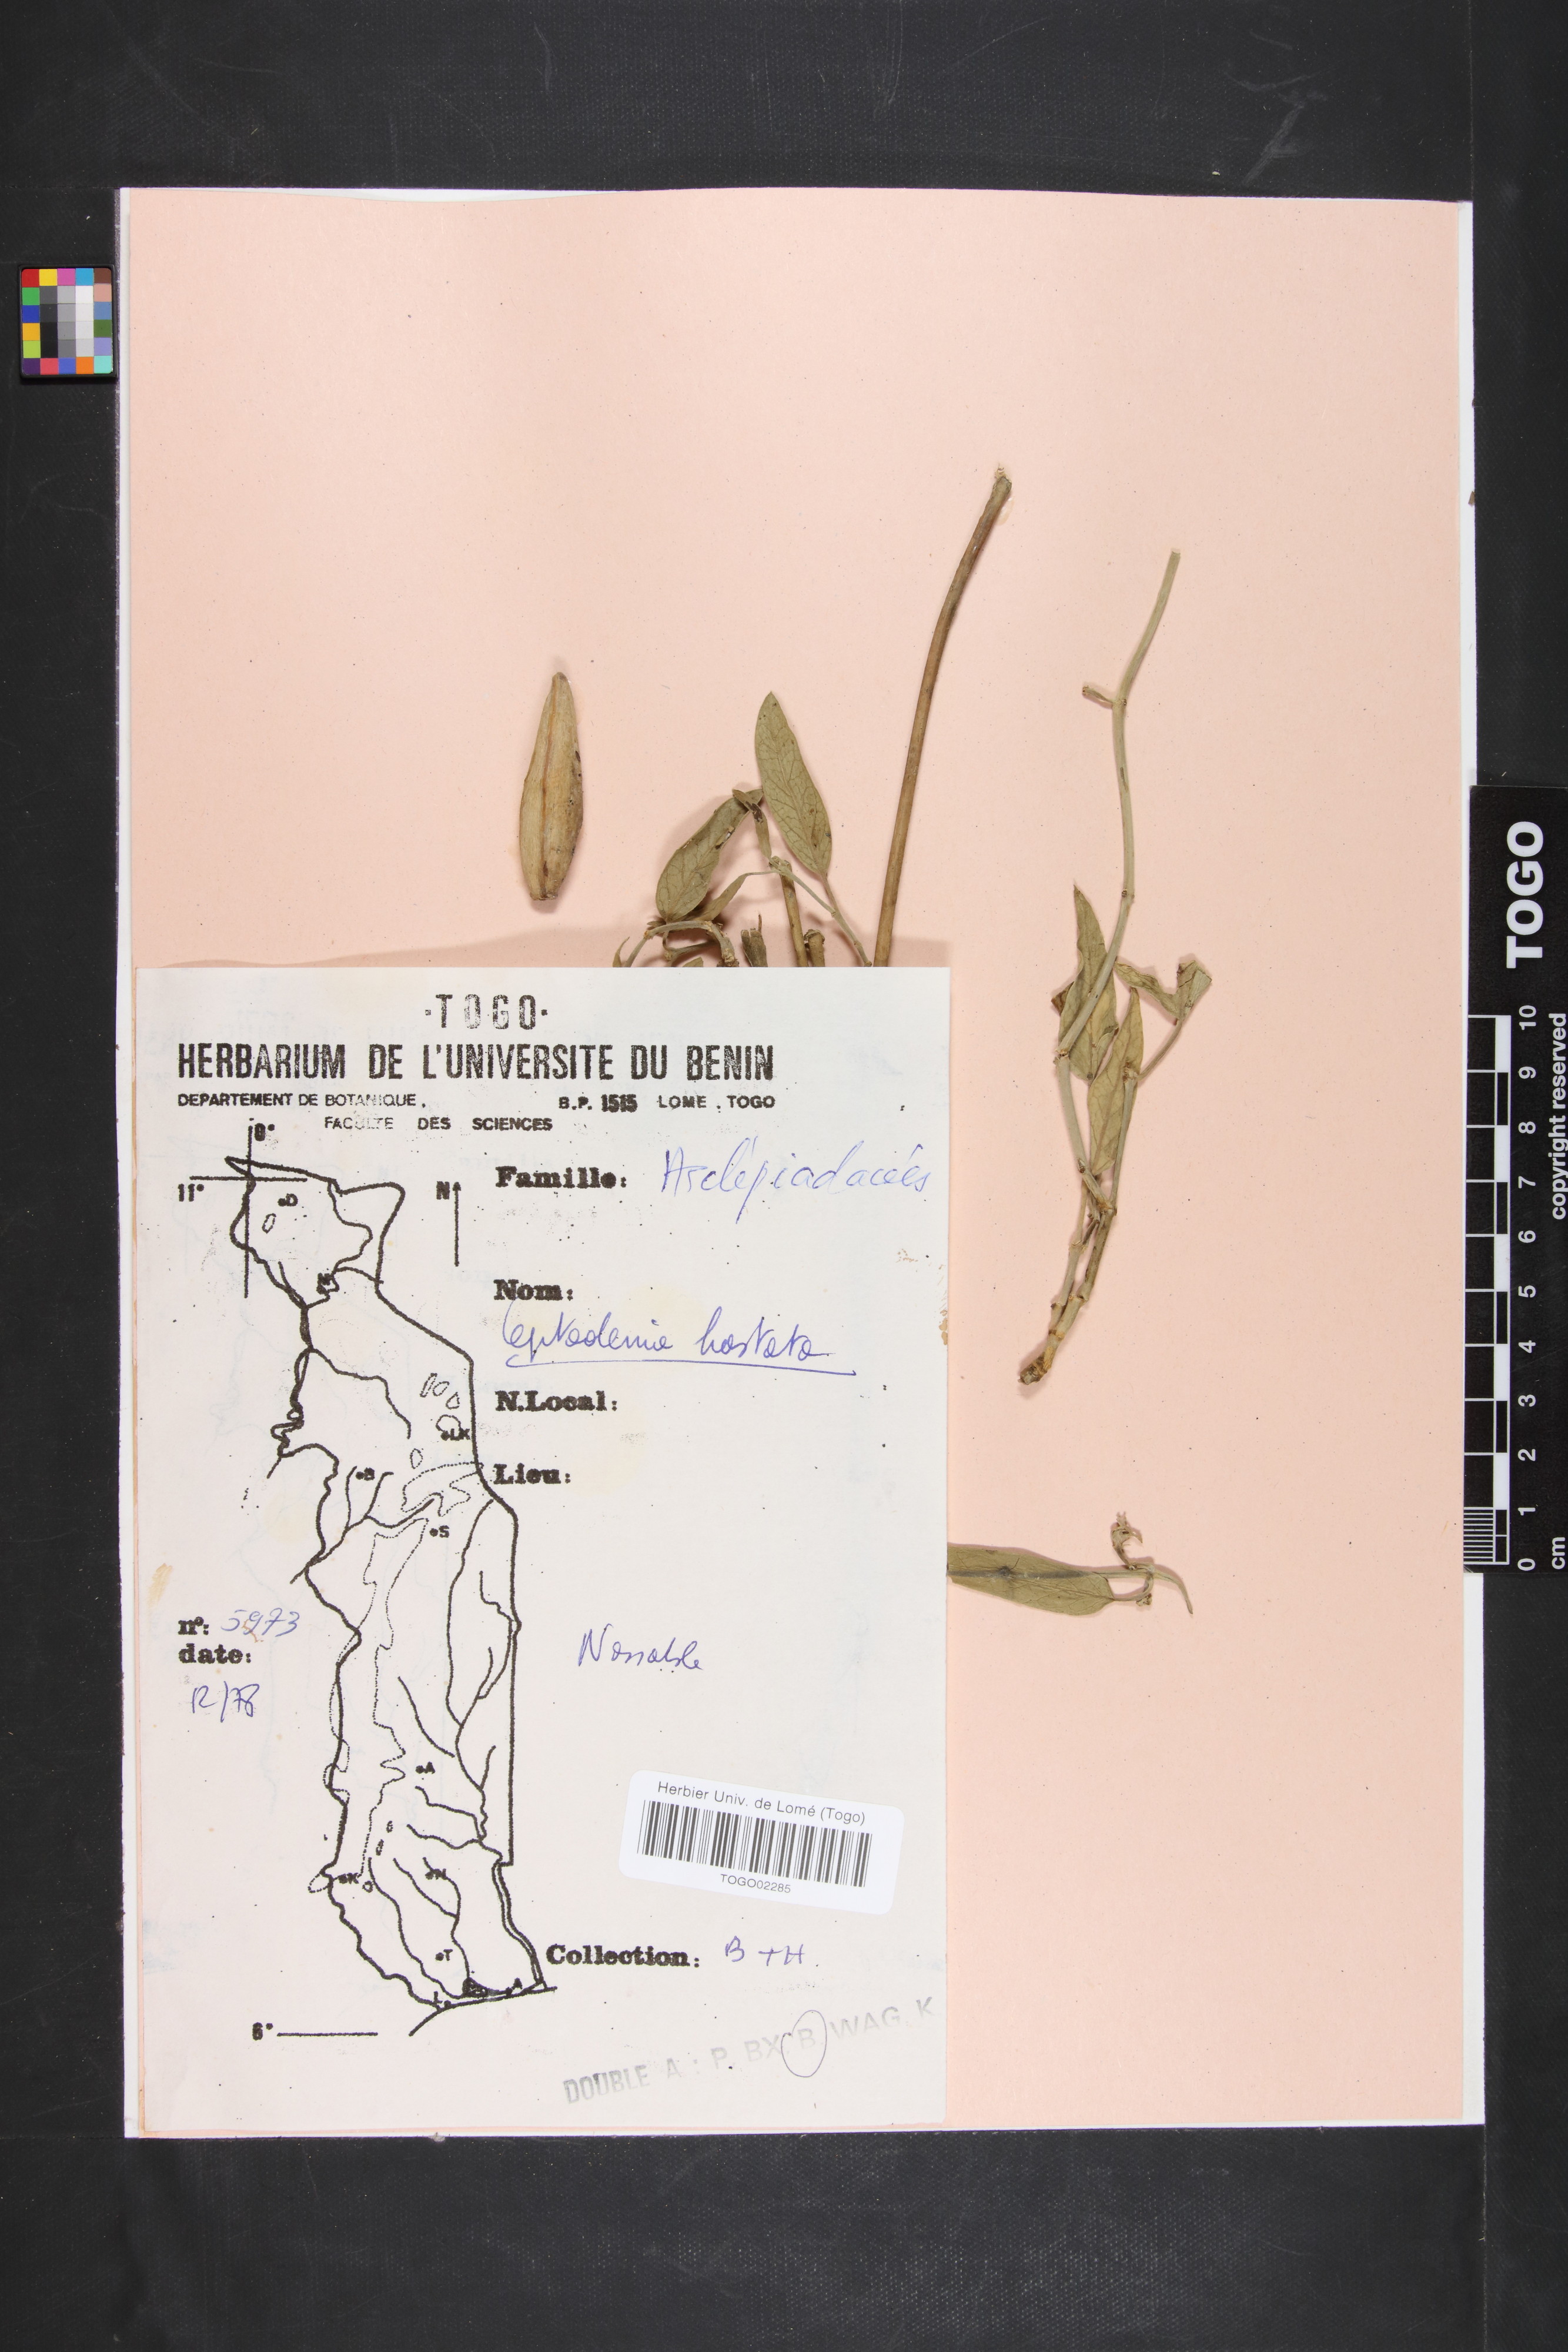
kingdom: Plantae
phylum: Tracheophyta
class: Magnoliopsida
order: Gentianales
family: Apocynaceae
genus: Leptadenia
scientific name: Leptadenia lanceolata
